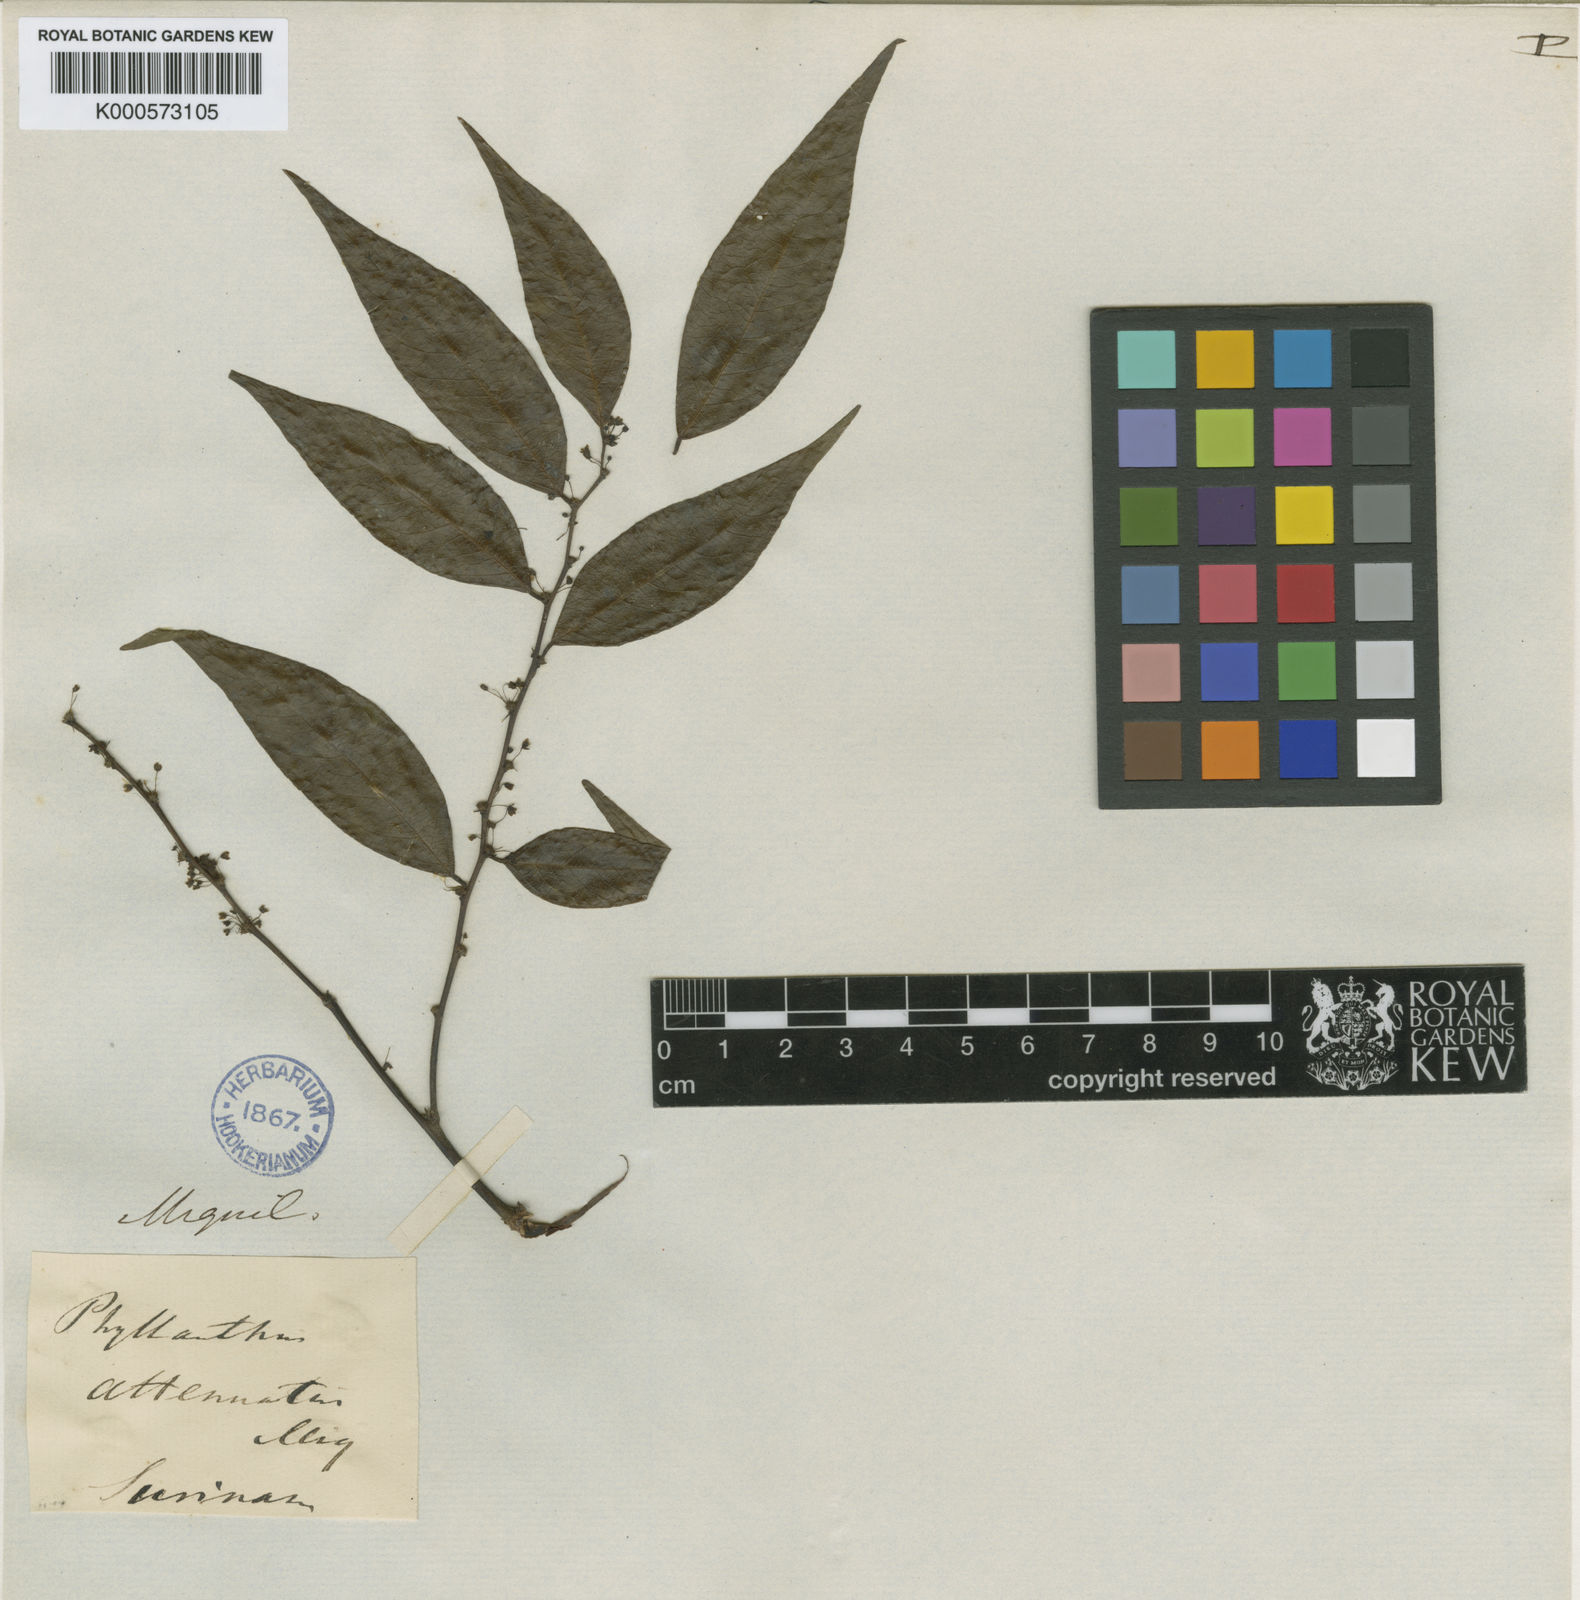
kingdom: Plantae
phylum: Tracheophyta
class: Magnoliopsida
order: Malpighiales
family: Phyllanthaceae
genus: Phyllanthus
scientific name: Phyllanthus attenuatus
